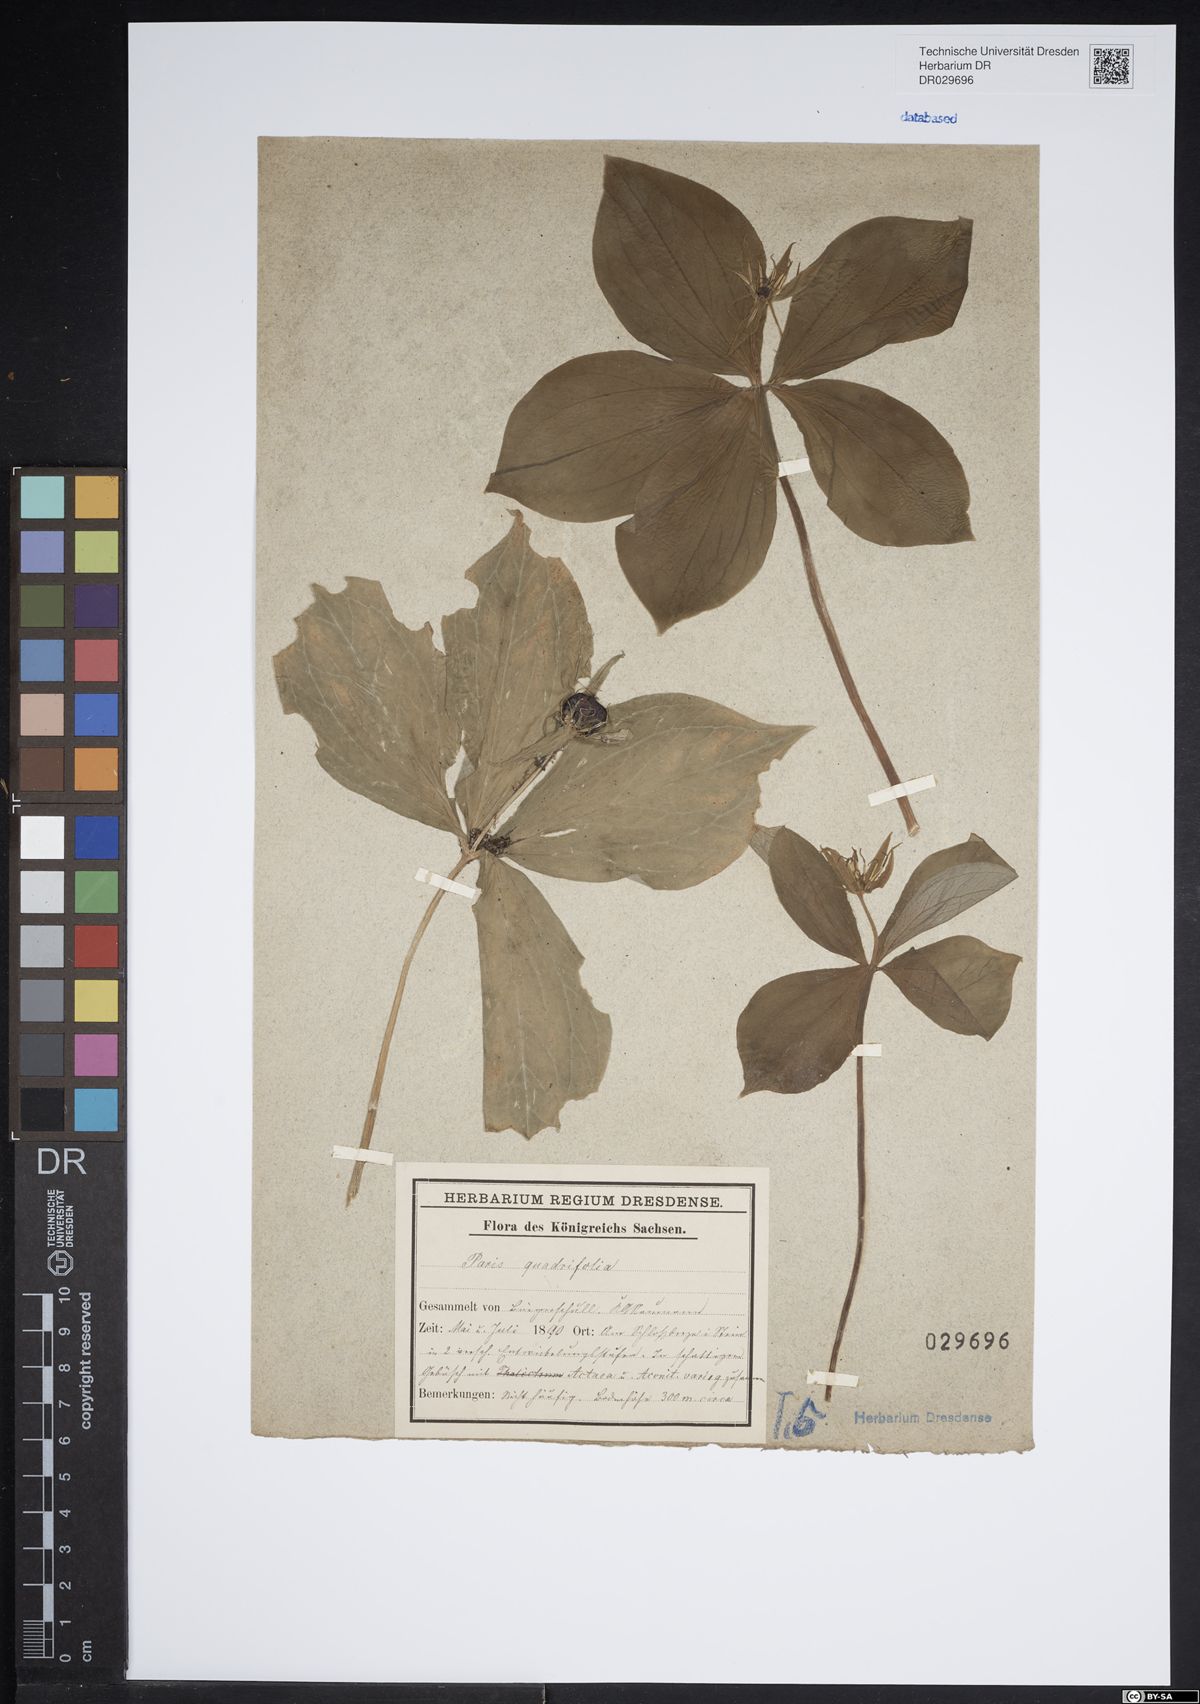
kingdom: Plantae
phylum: Tracheophyta
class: Liliopsida
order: Liliales
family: Melanthiaceae
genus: Paris
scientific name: Paris quadrifolia
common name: Herb-paris
